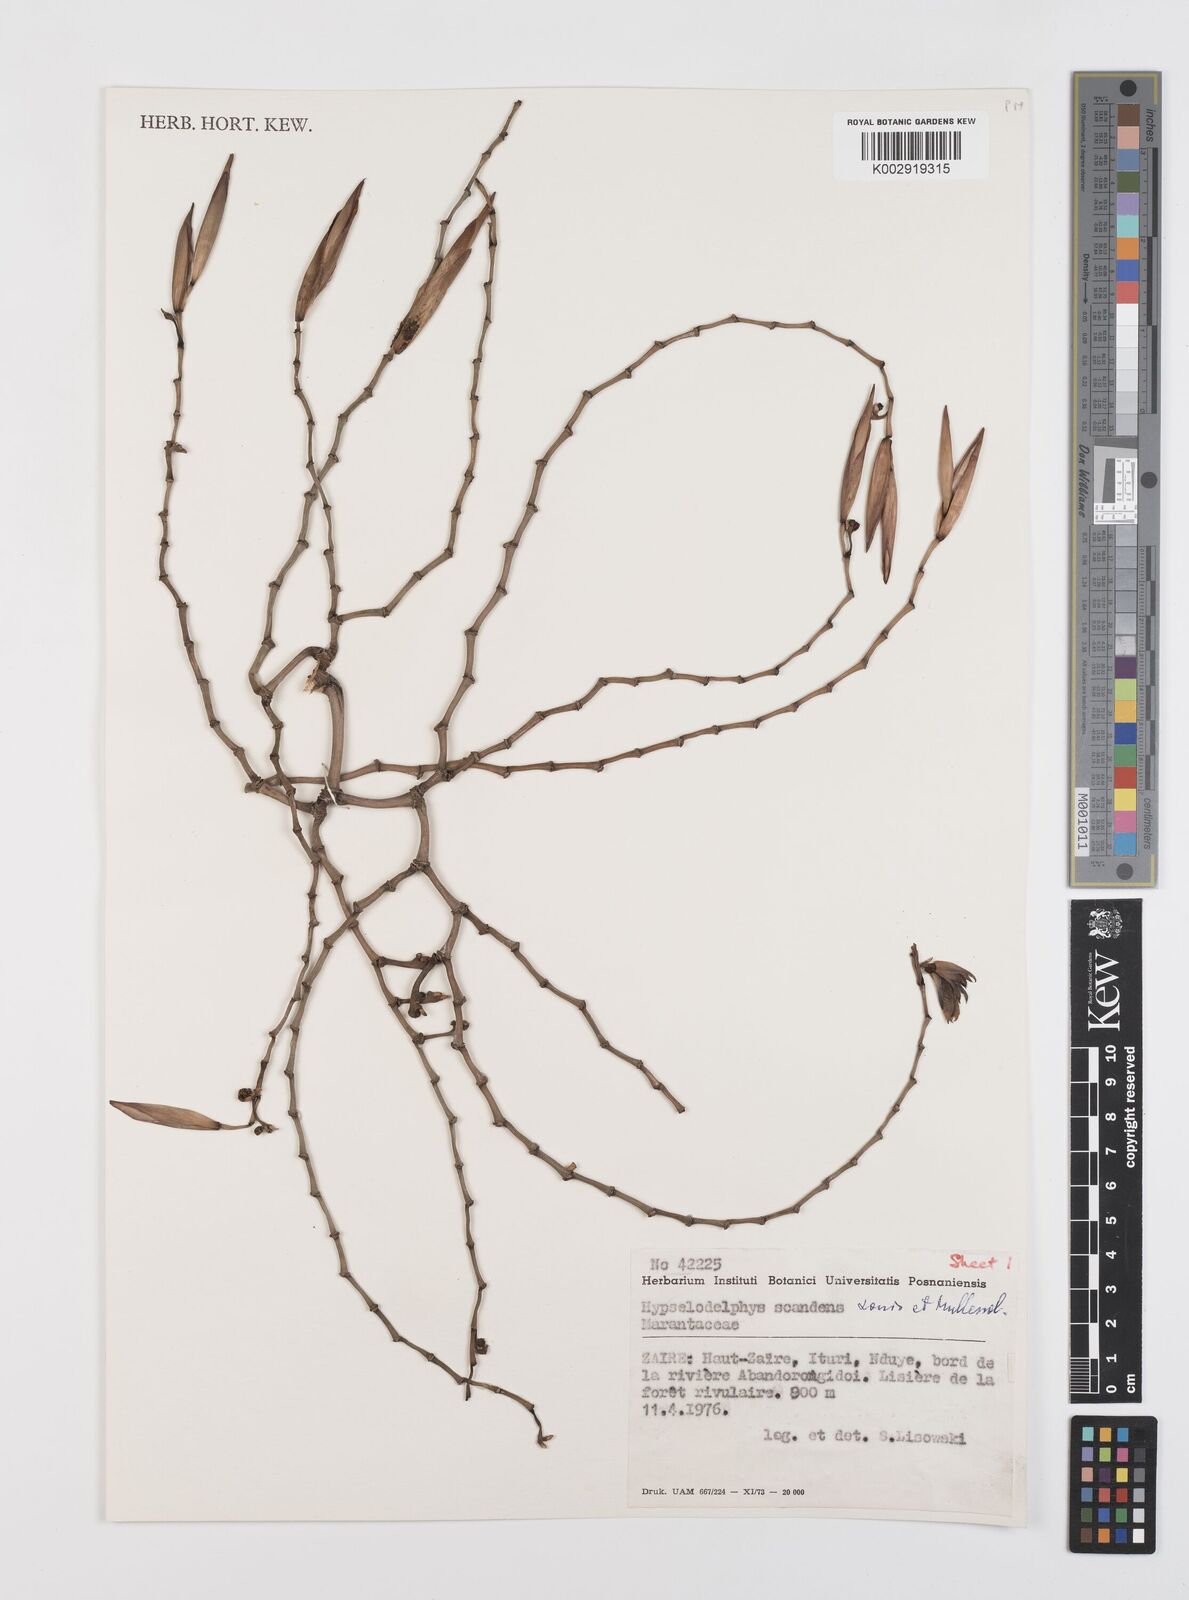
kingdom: Plantae
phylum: Tracheophyta
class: Liliopsida
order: Zingiberales
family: Marantaceae
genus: Hypselodelphys
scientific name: Hypselodelphys scandens
